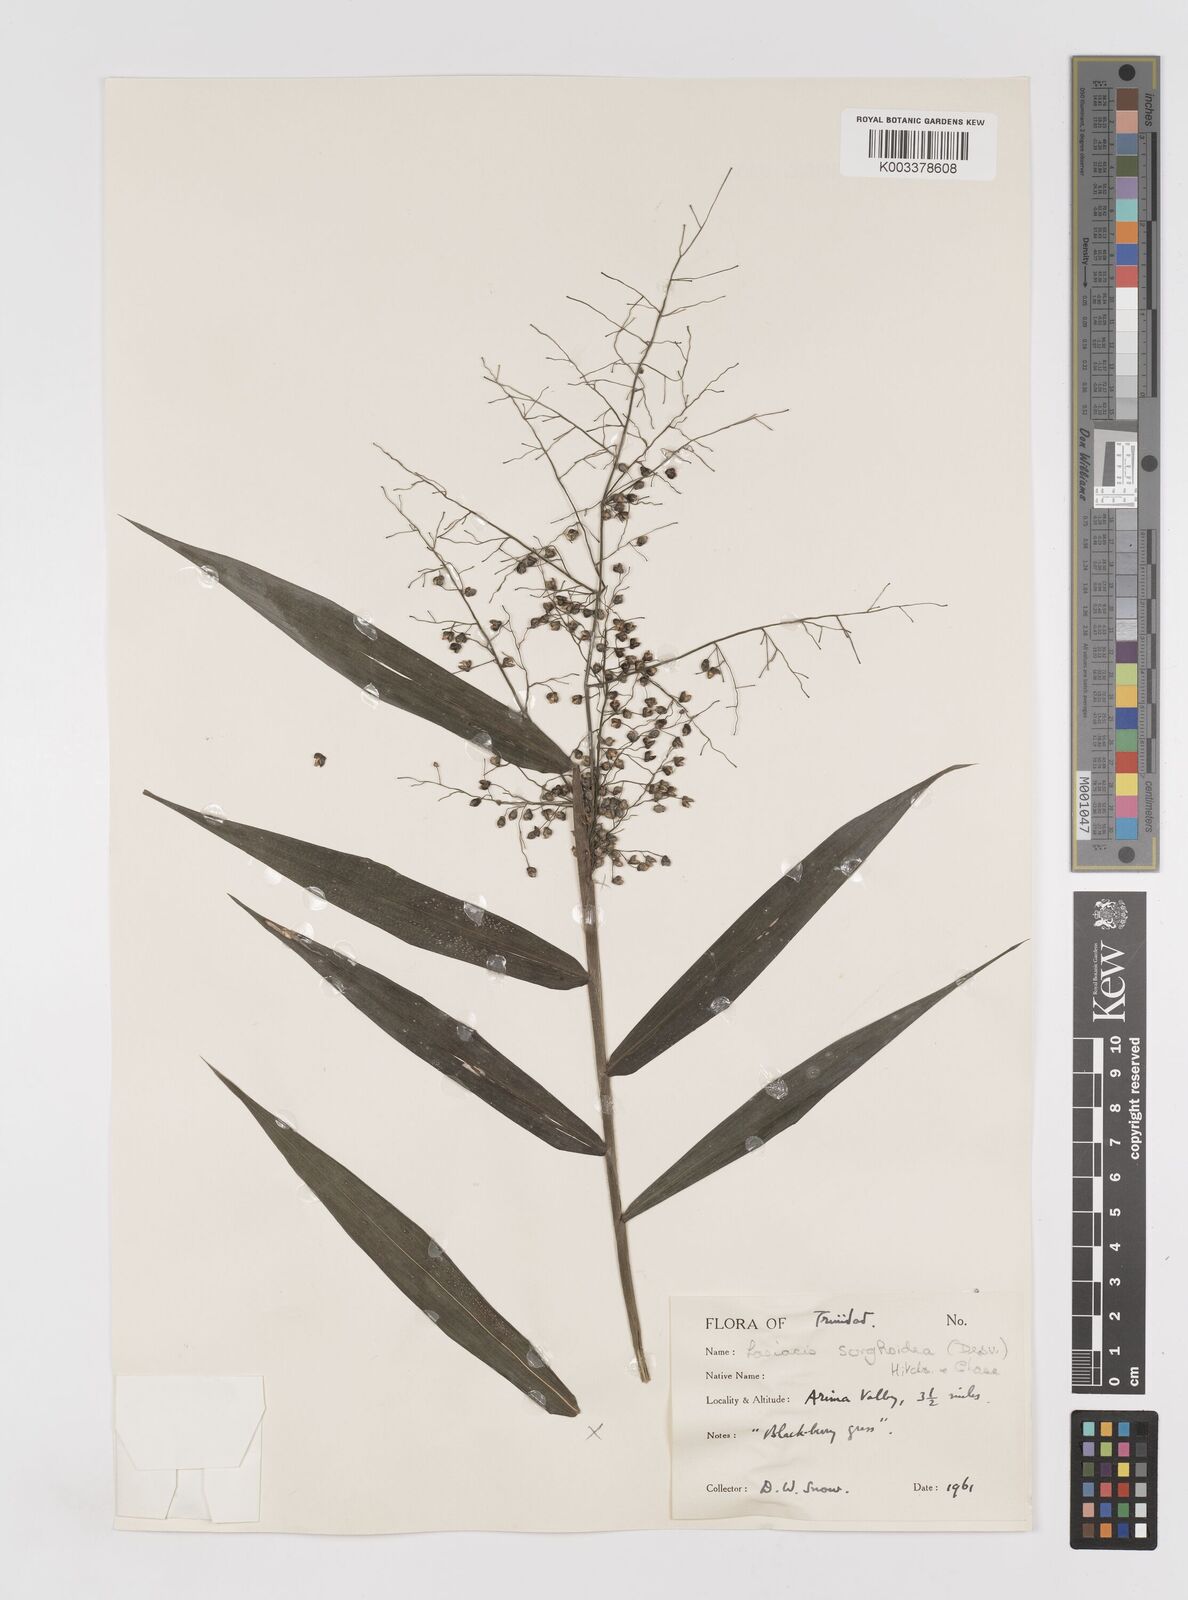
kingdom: Plantae
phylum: Tracheophyta
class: Liliopsida
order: Poales
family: Poaceae
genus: Lasiacis
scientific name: Lasiacis maculata
